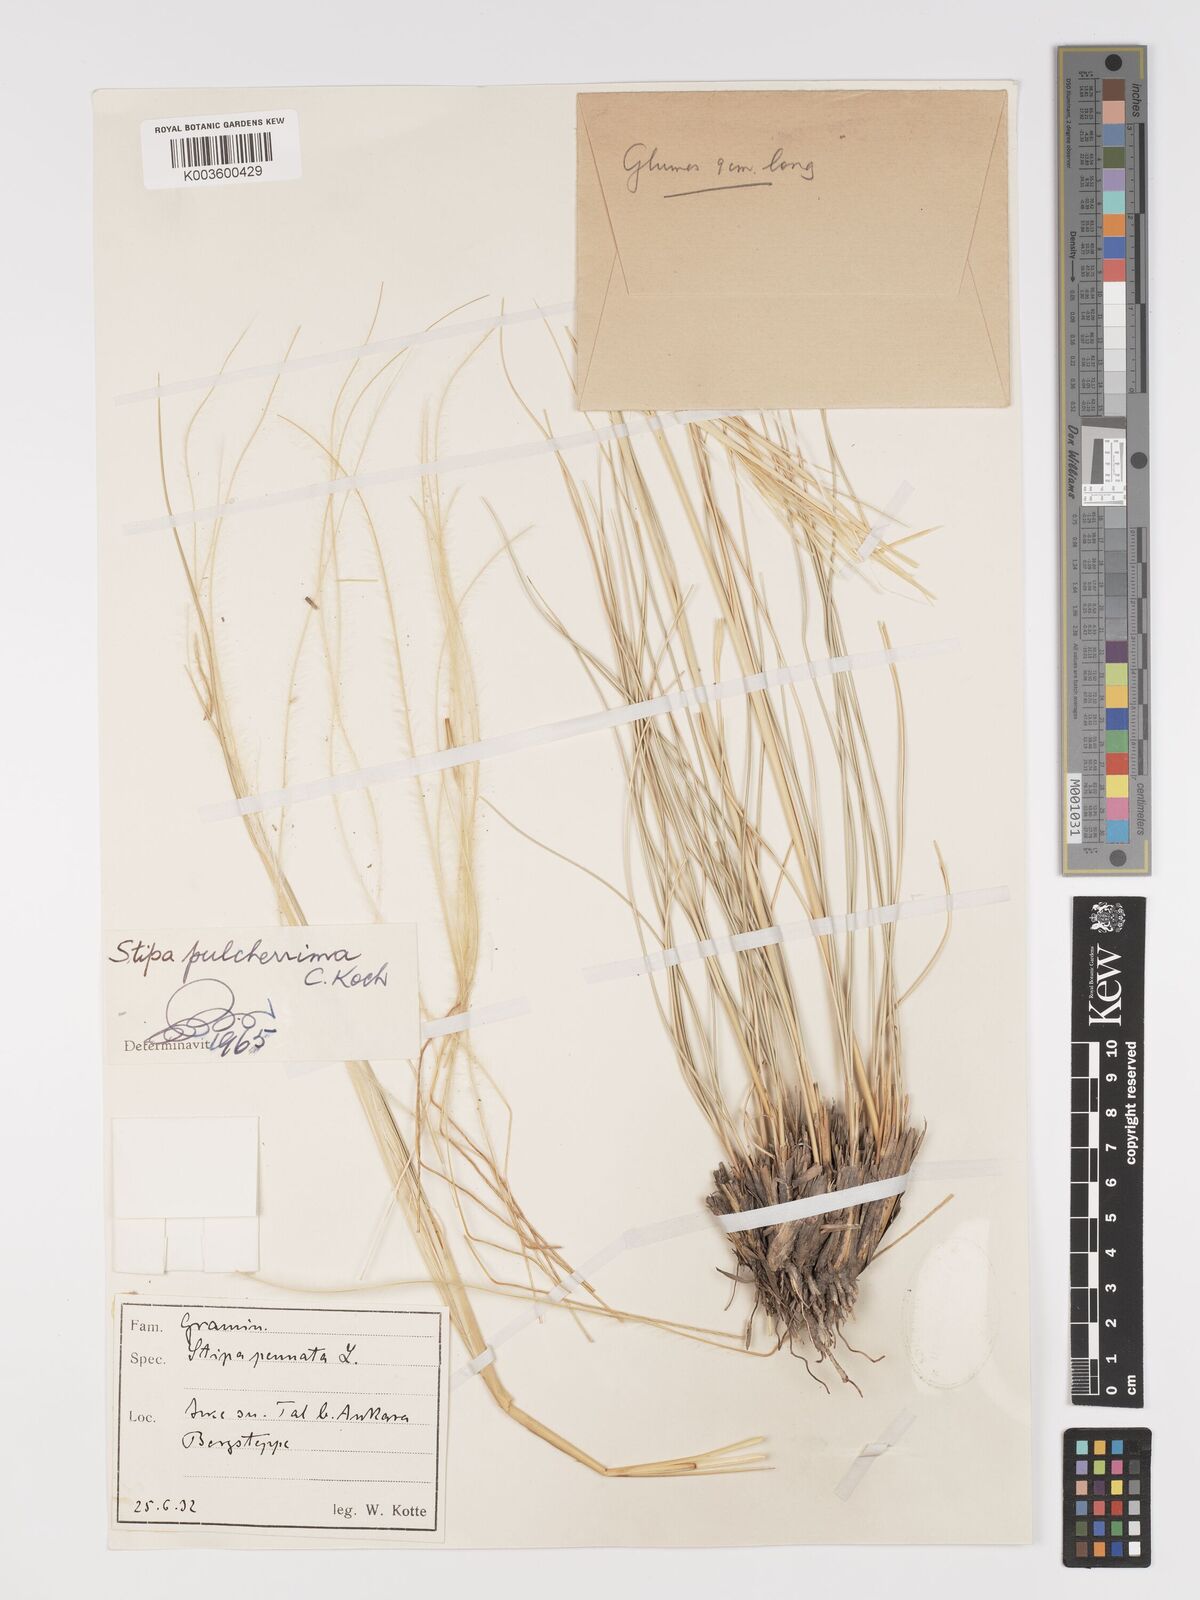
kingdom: Plantae
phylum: Tracheophyta
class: Liliopsida
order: Poales
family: Poaceae
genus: Stipa
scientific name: Stipa pulcherrima
